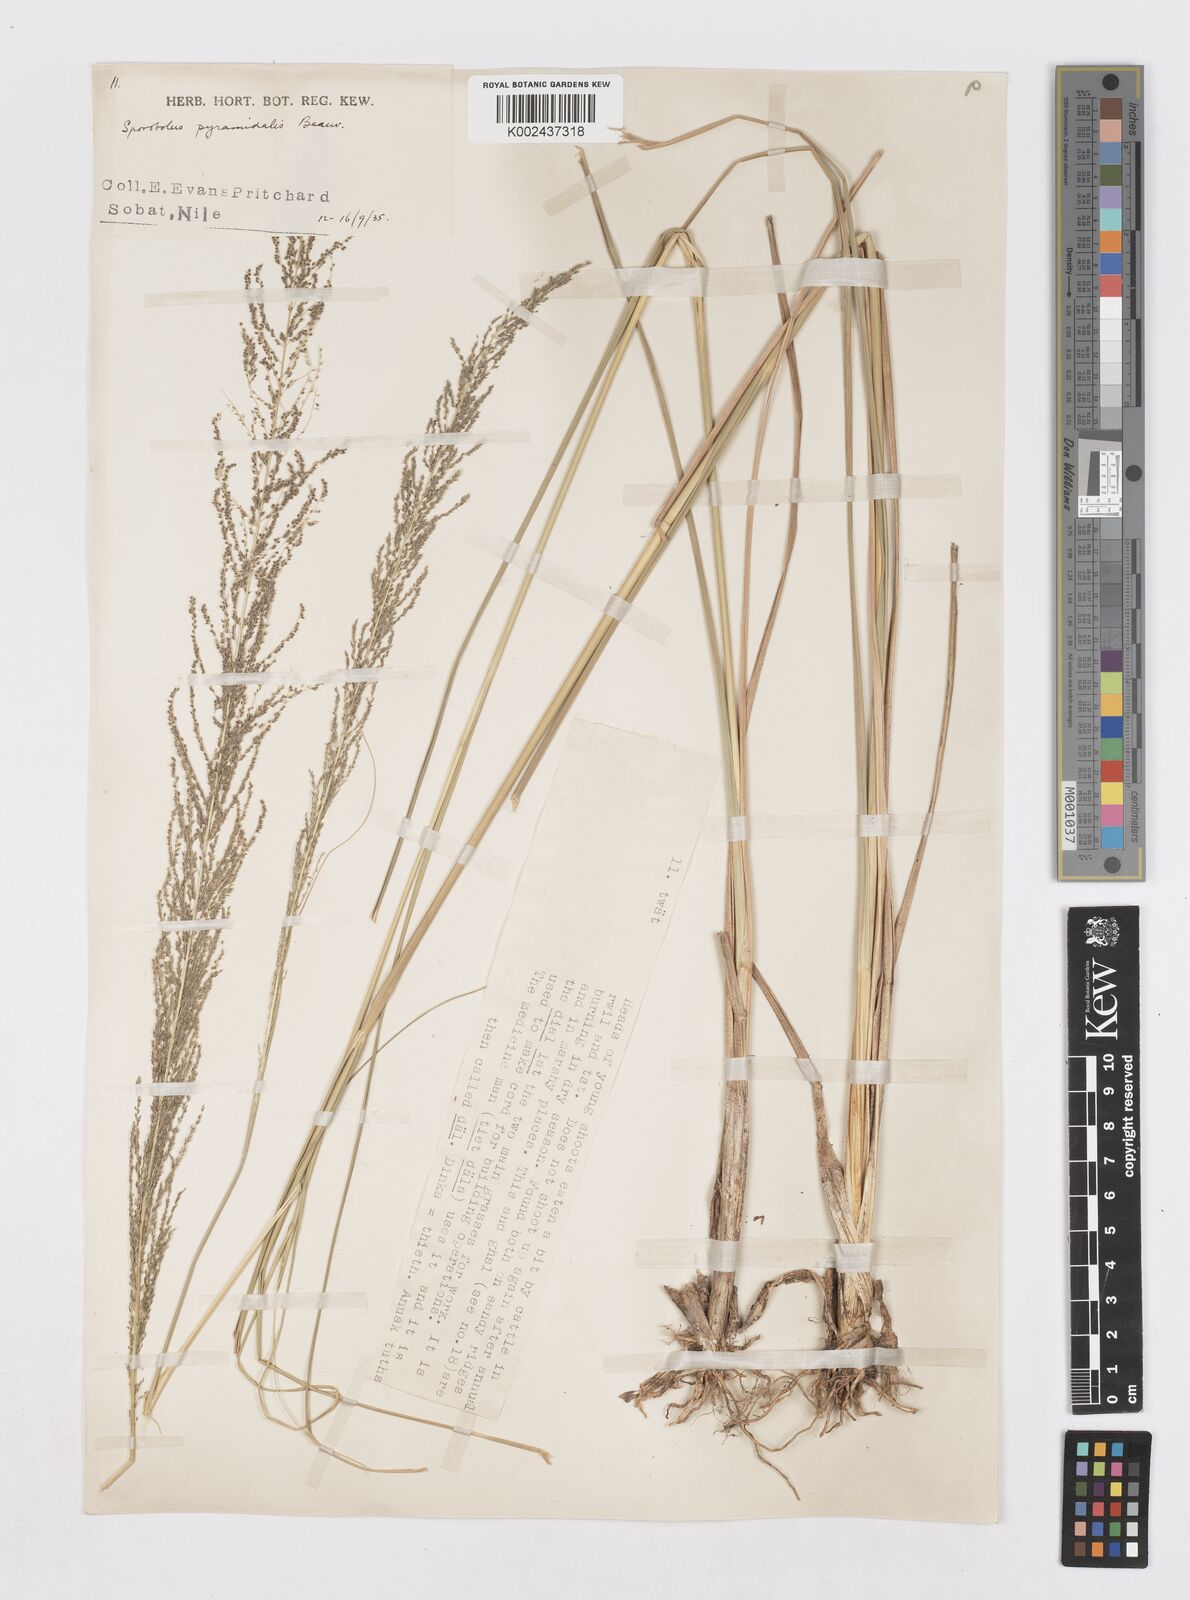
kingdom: Plantae
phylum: Tracheophyta
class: Liliopsida
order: Poales
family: Poaceae
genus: Sporobolus
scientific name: Sporobolus pyramidalis
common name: West indian dropseed
